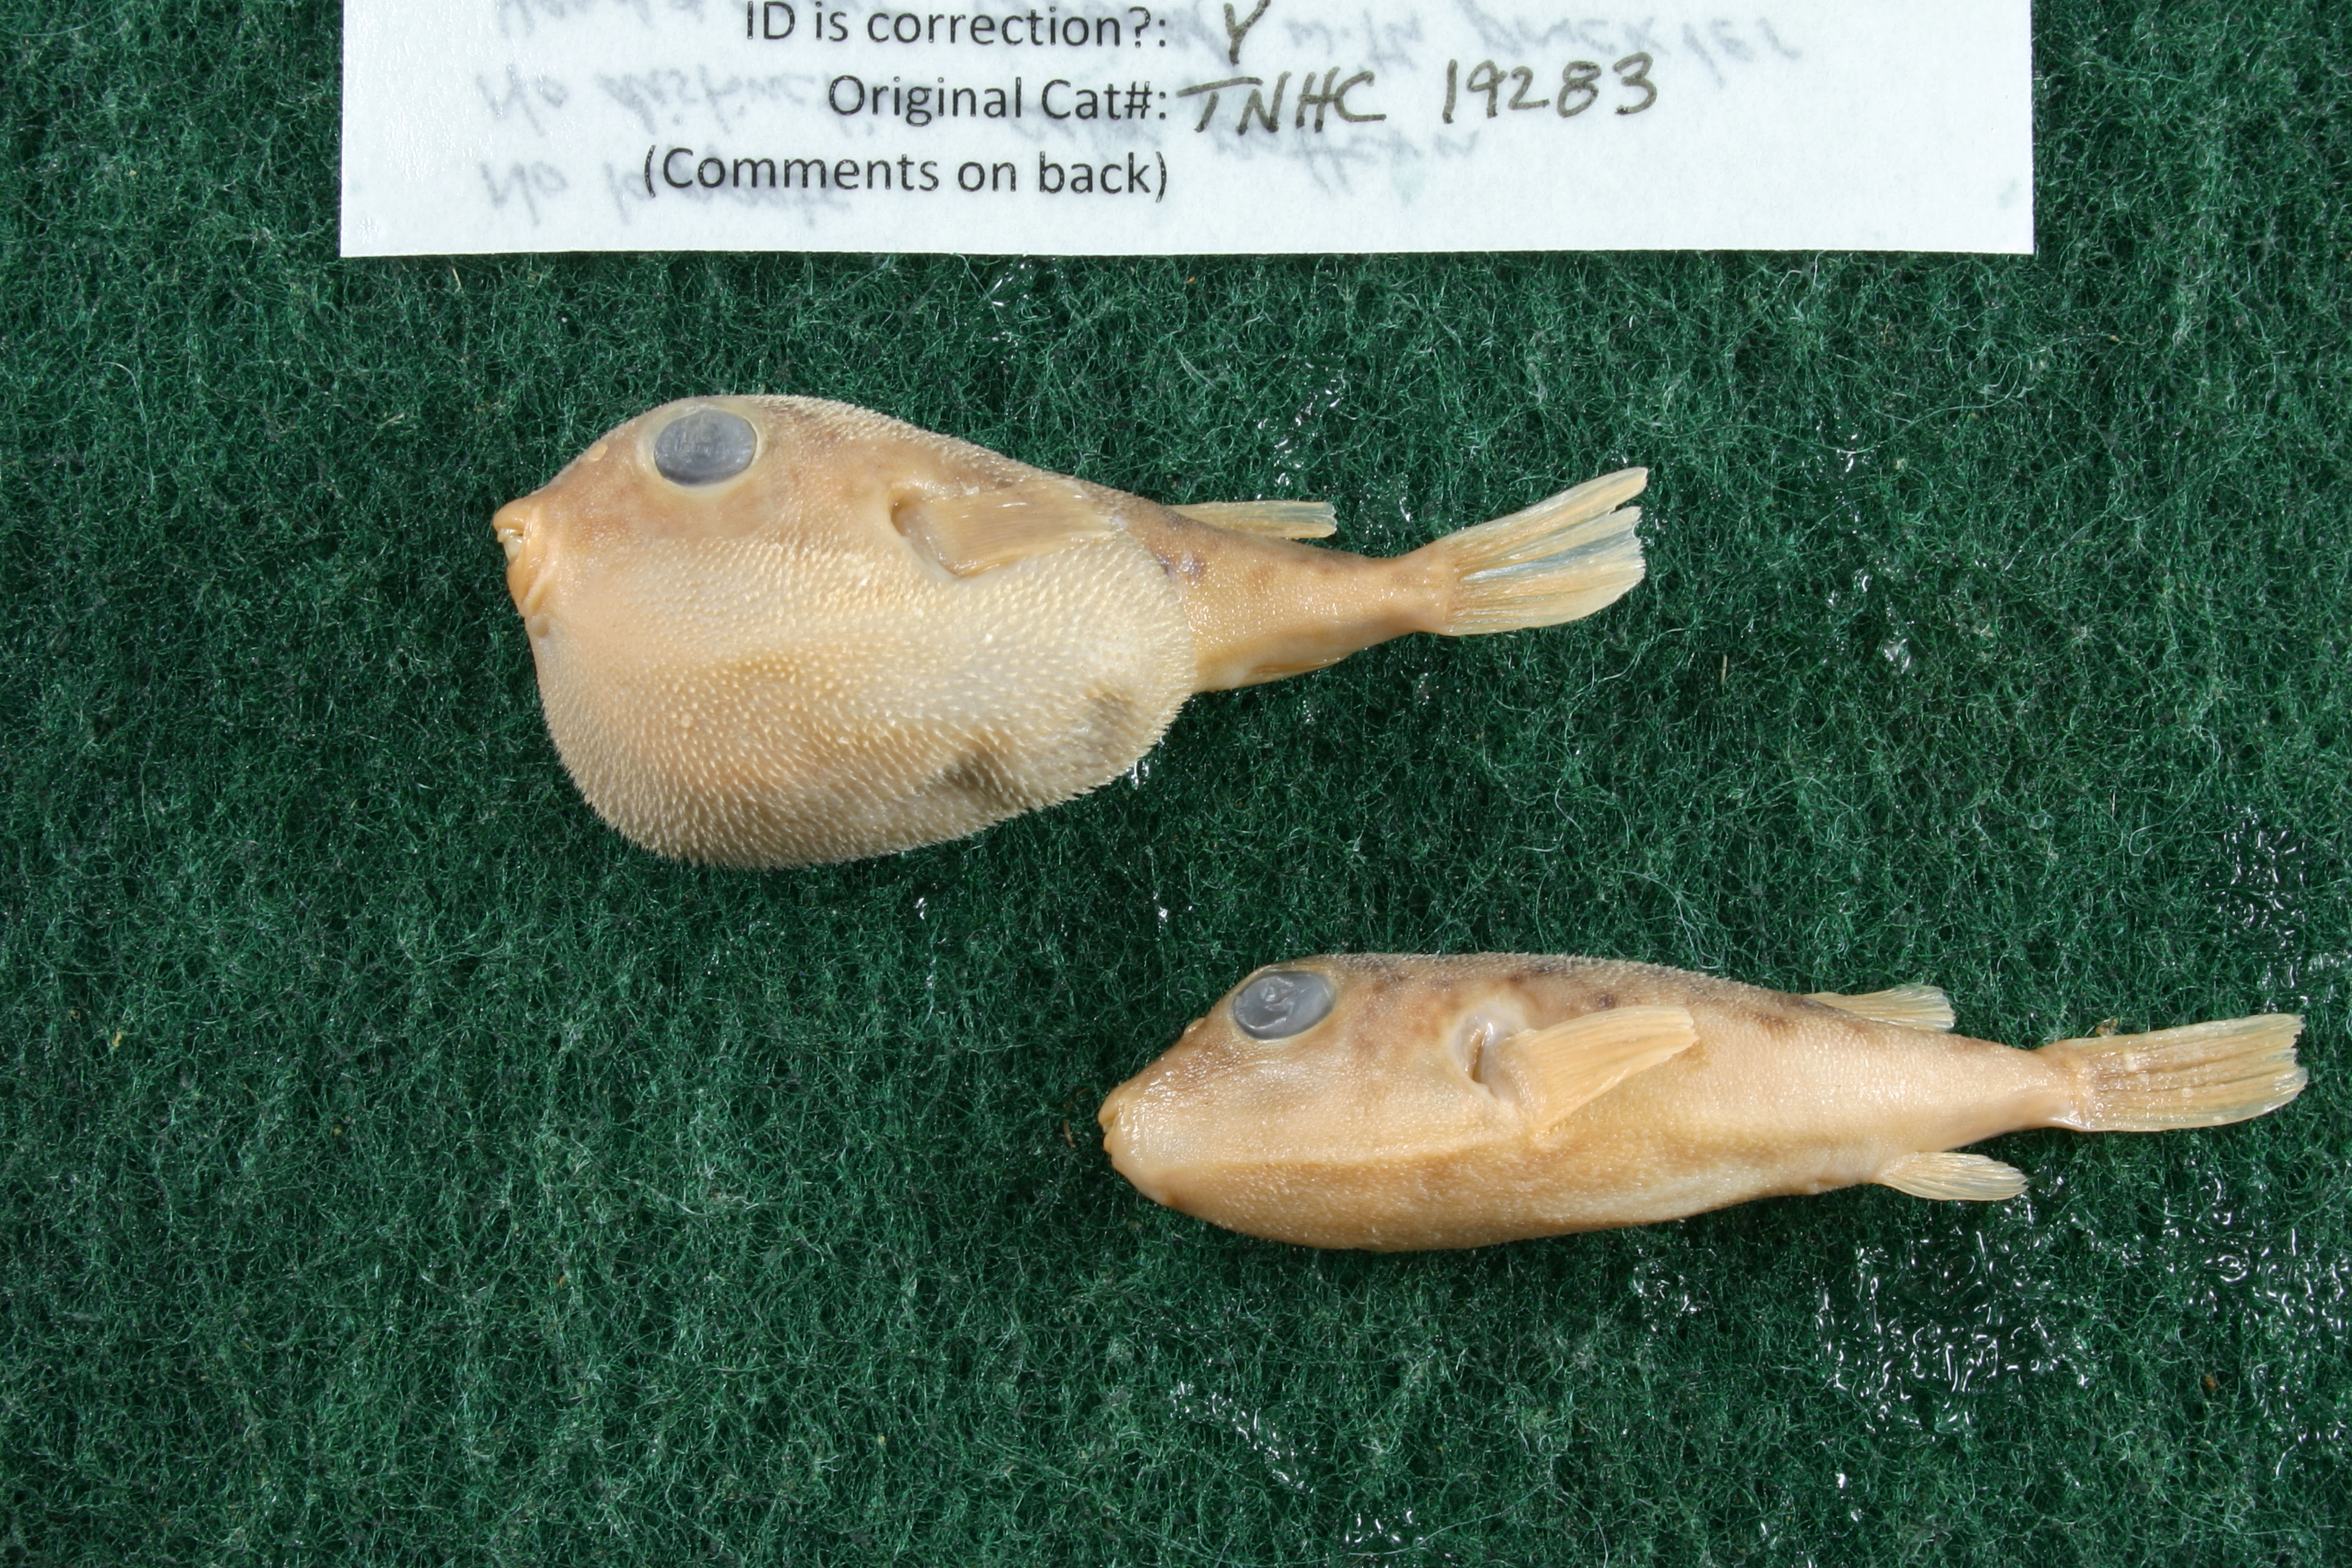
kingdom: Animalia
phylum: Chordata
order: Tetraodontiformes
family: Tetraodontidae
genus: Sphoeroides
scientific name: Sphoeroides parvus
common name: Least puffer
